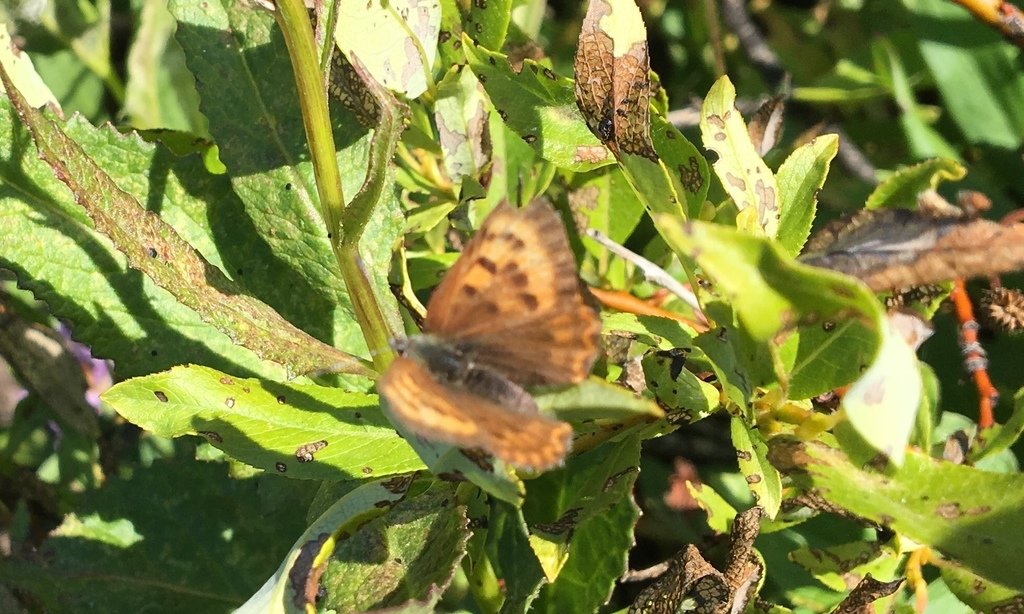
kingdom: Animalia
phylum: Arthropoda
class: Insecta
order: Lepidoptera
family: Lycaenidae
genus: Lycaena
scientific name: Lycaena mariposa
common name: Mariposa Copper
